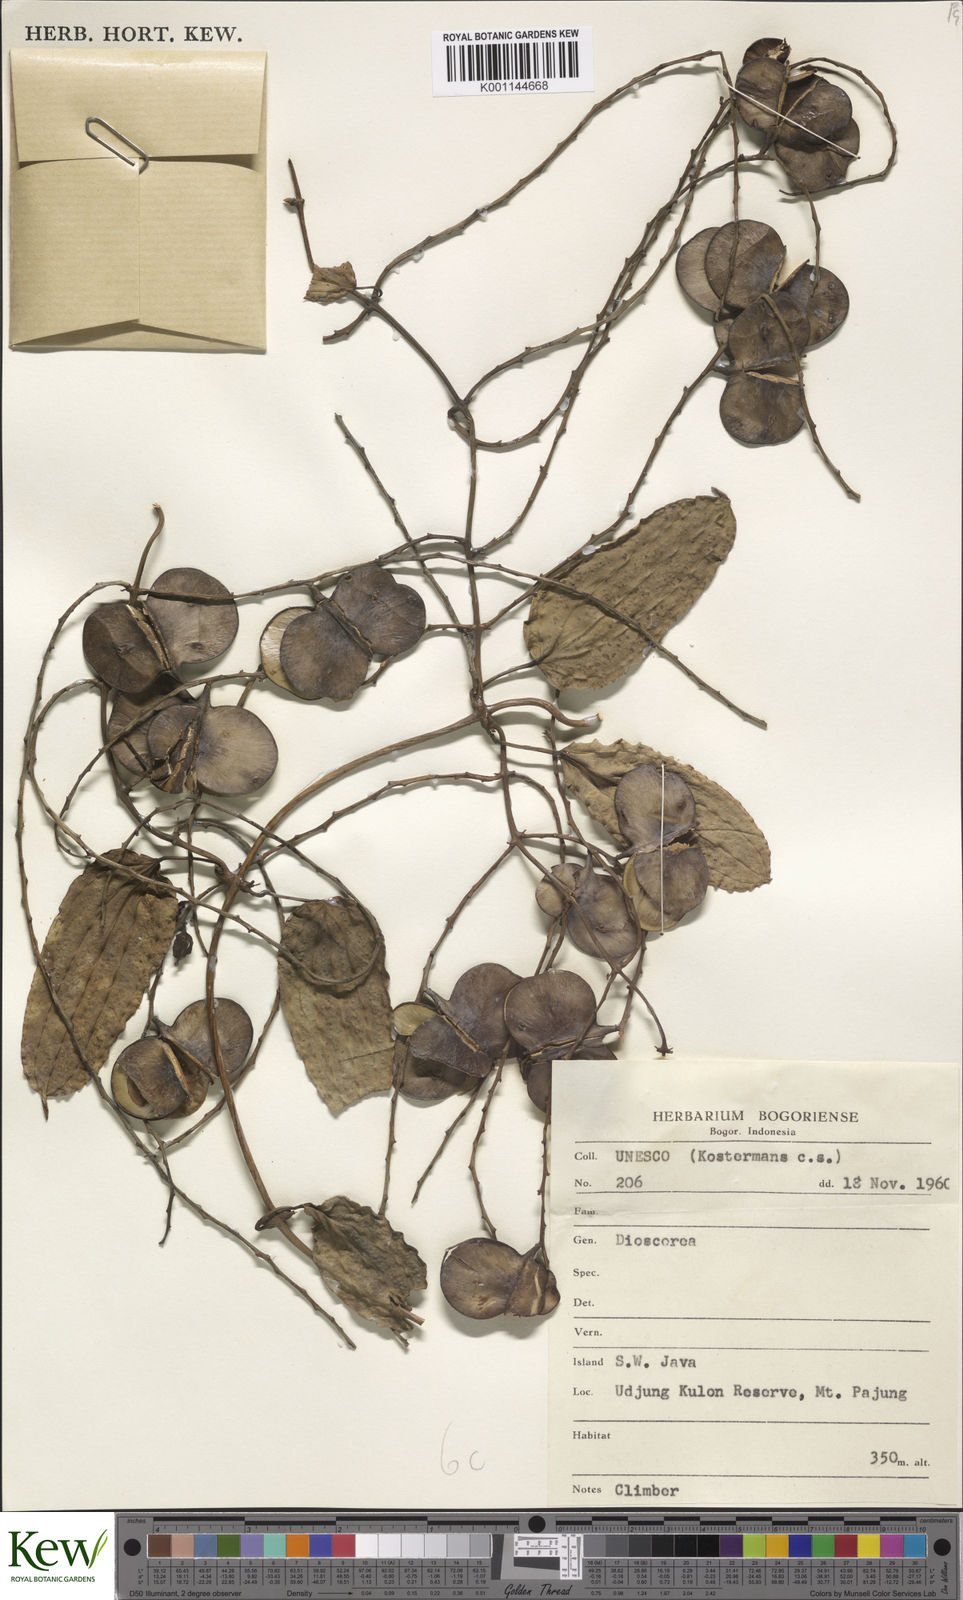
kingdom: Plantae
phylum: Tracheophyta
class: Liliopsida
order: Dioscoreales
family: Dioscoreaceae
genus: Dioscorea
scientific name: Dioscorea
